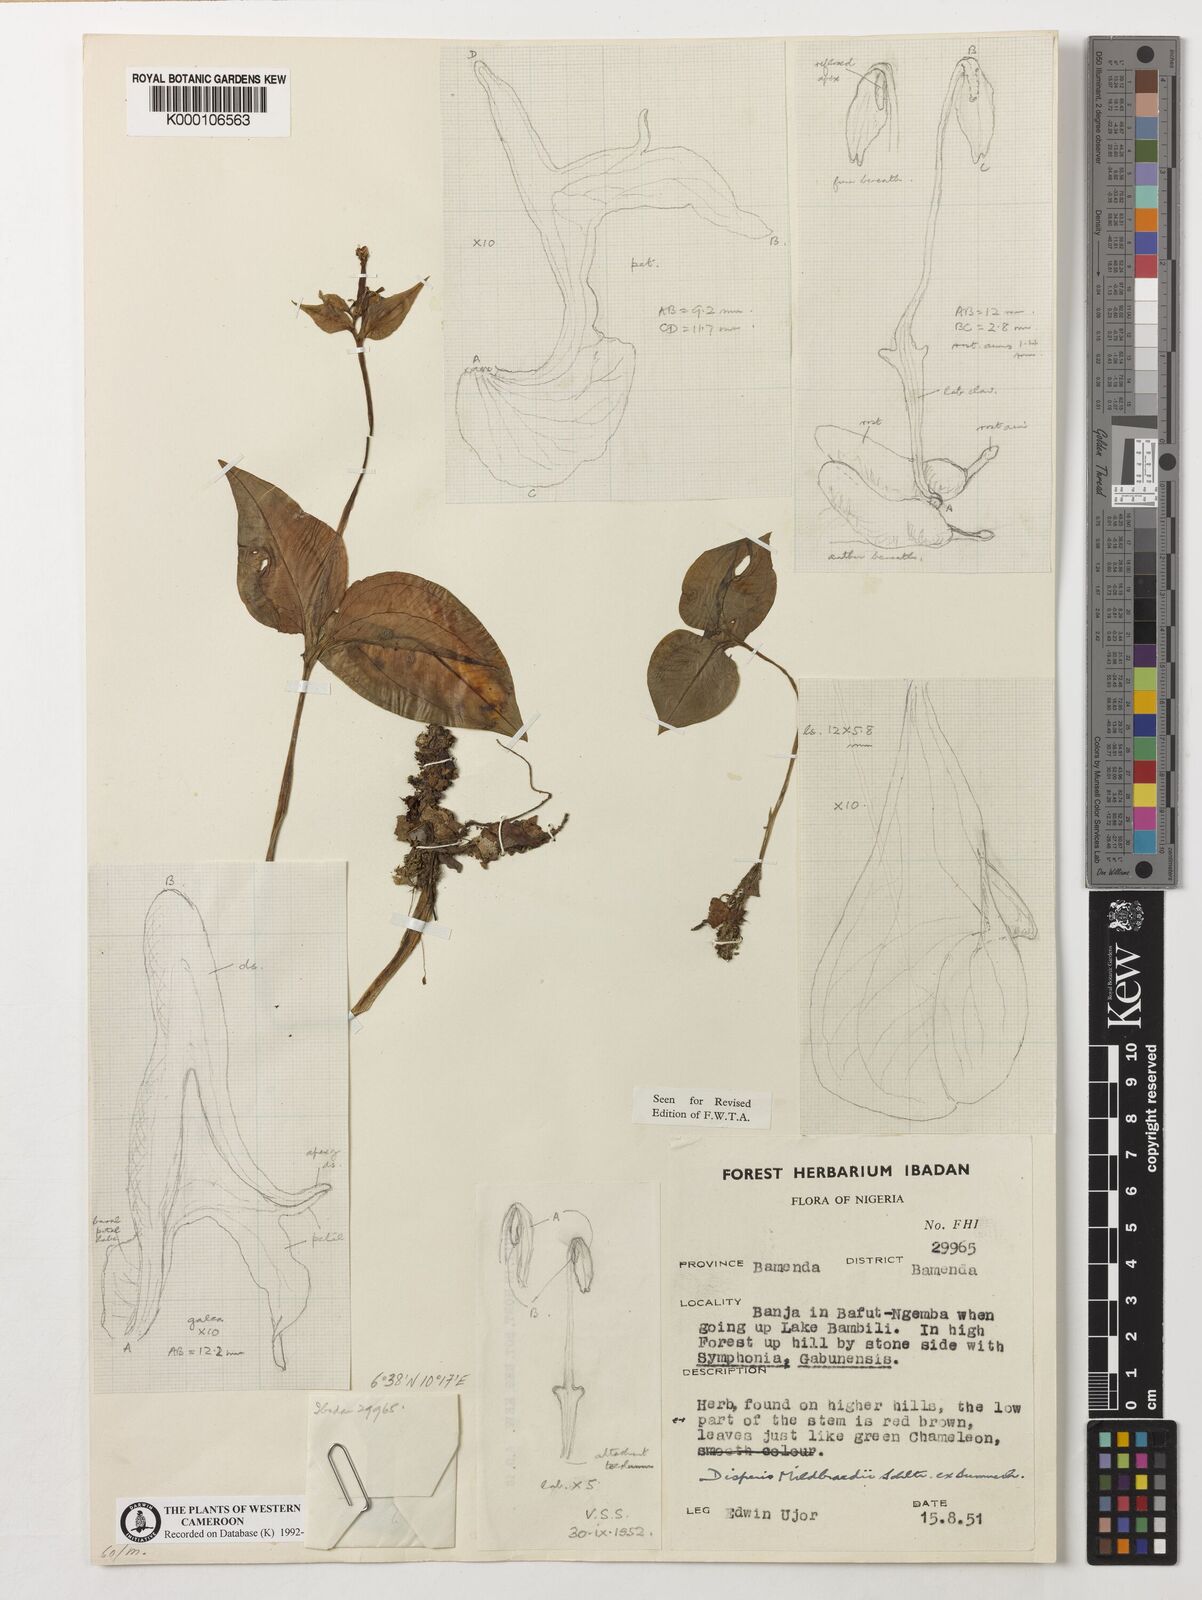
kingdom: Plantae
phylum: Tracheophyta
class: Liliopsida
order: Asparagales
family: Orchidaceae
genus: Disperis
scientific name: Disperis mildbraedii
